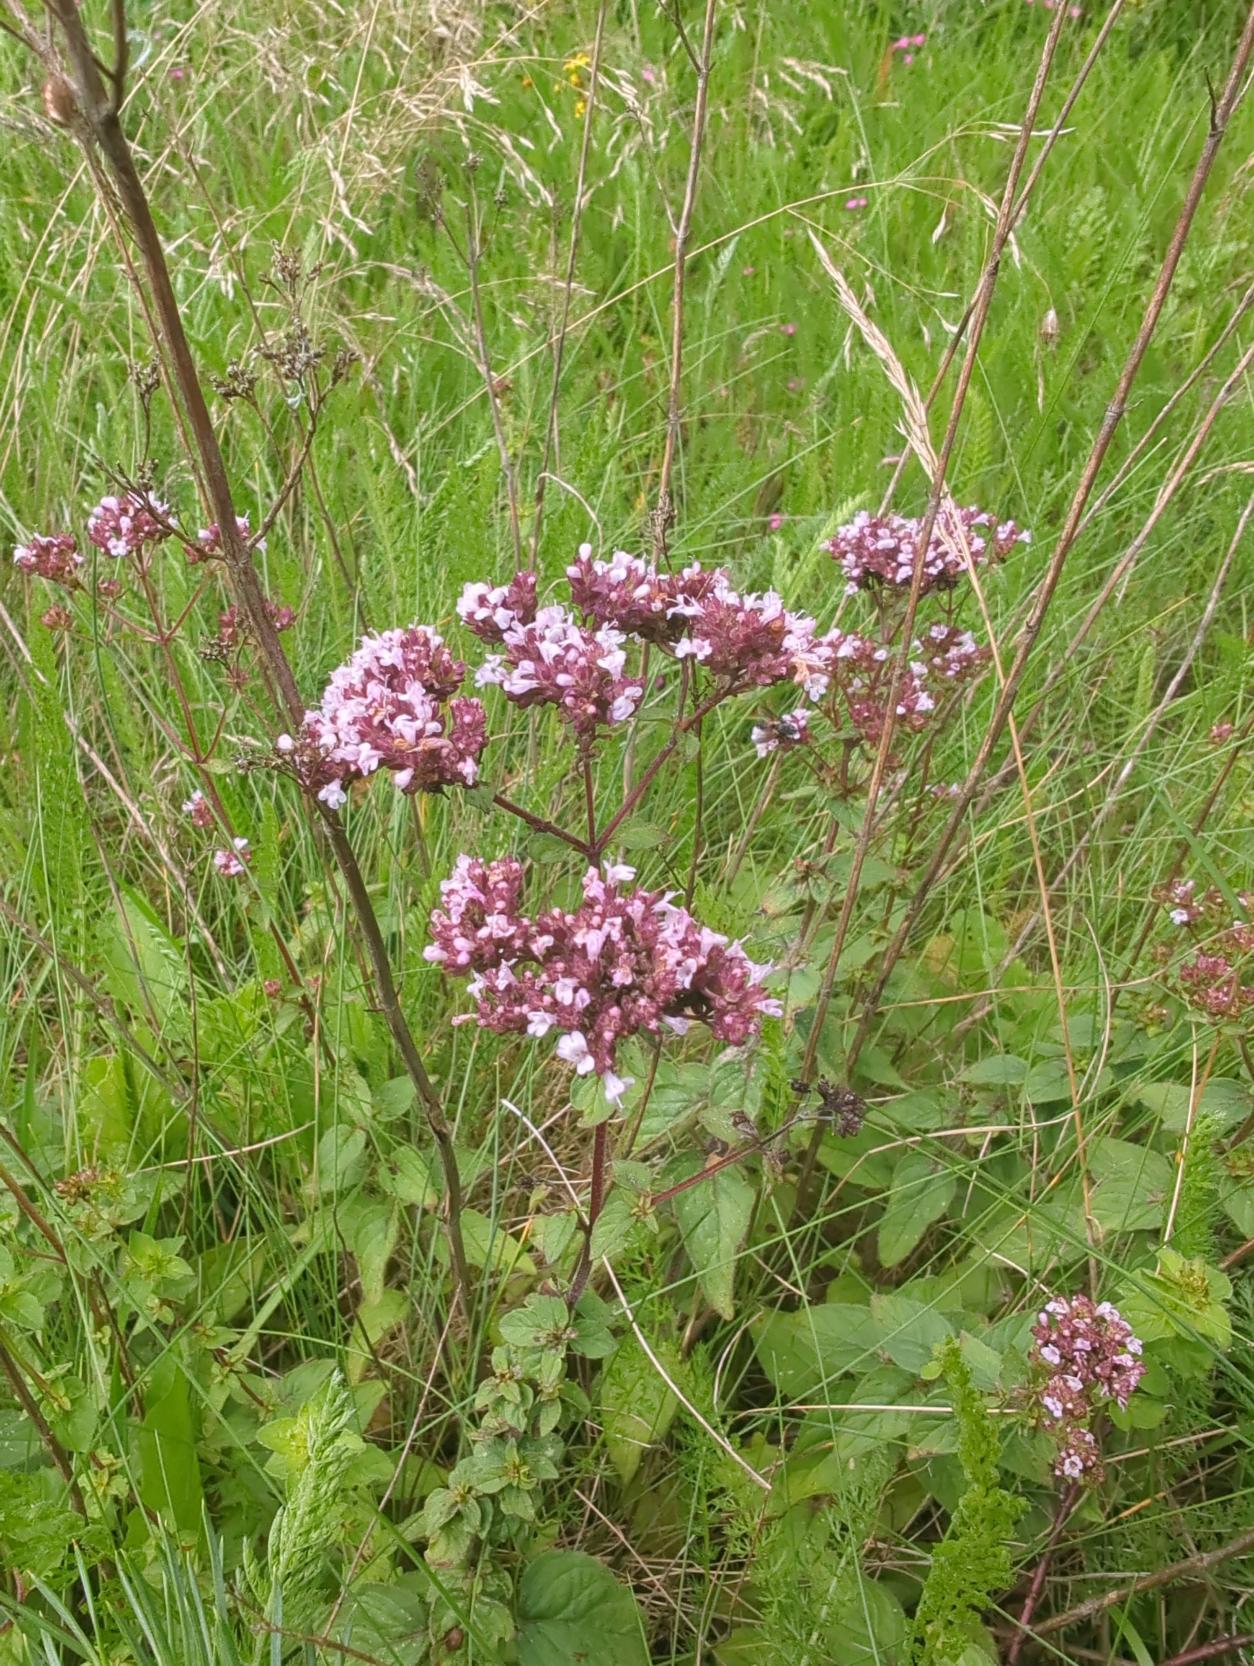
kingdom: Plantae
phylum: Tracheophyta
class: Magnoliopsida
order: Lamiales
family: Lamiaceae
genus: Origanum
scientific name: Origanum vulgare
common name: Merian
